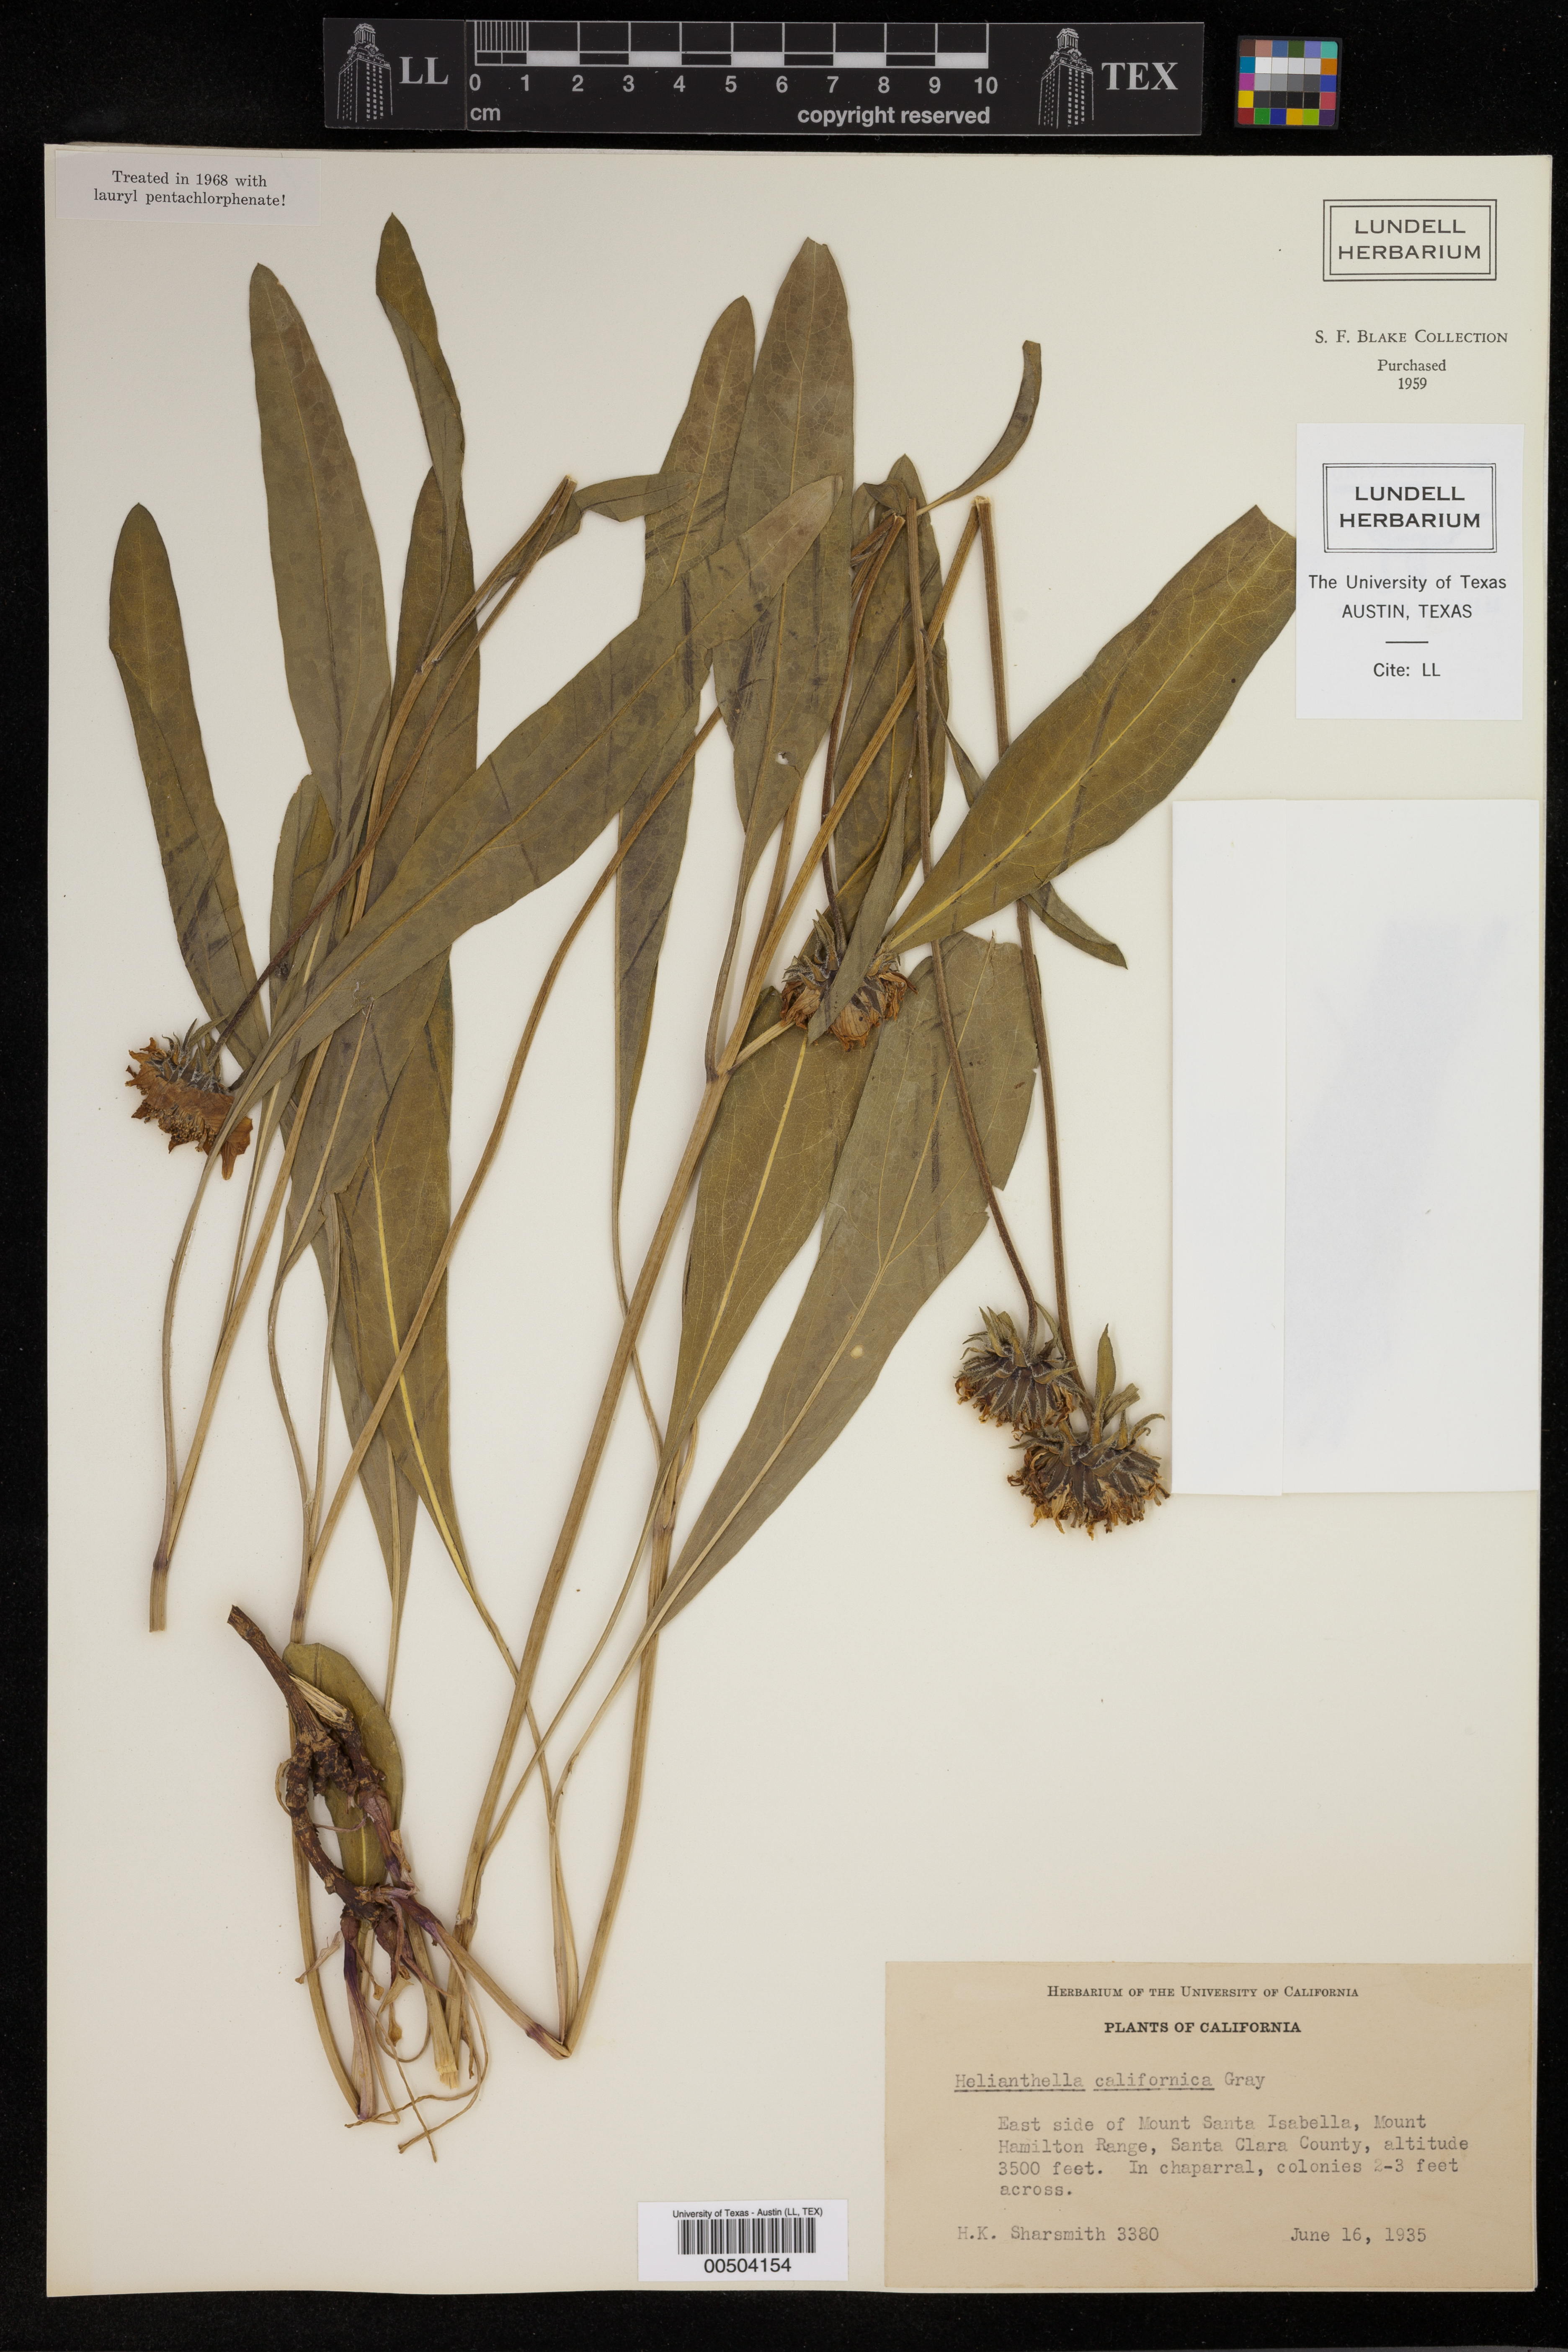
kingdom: Plantae
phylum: Tracheophyta
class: Magnoliopsida
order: Asterales
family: Asteraceae
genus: Helianthella
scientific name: Helianthella californica
